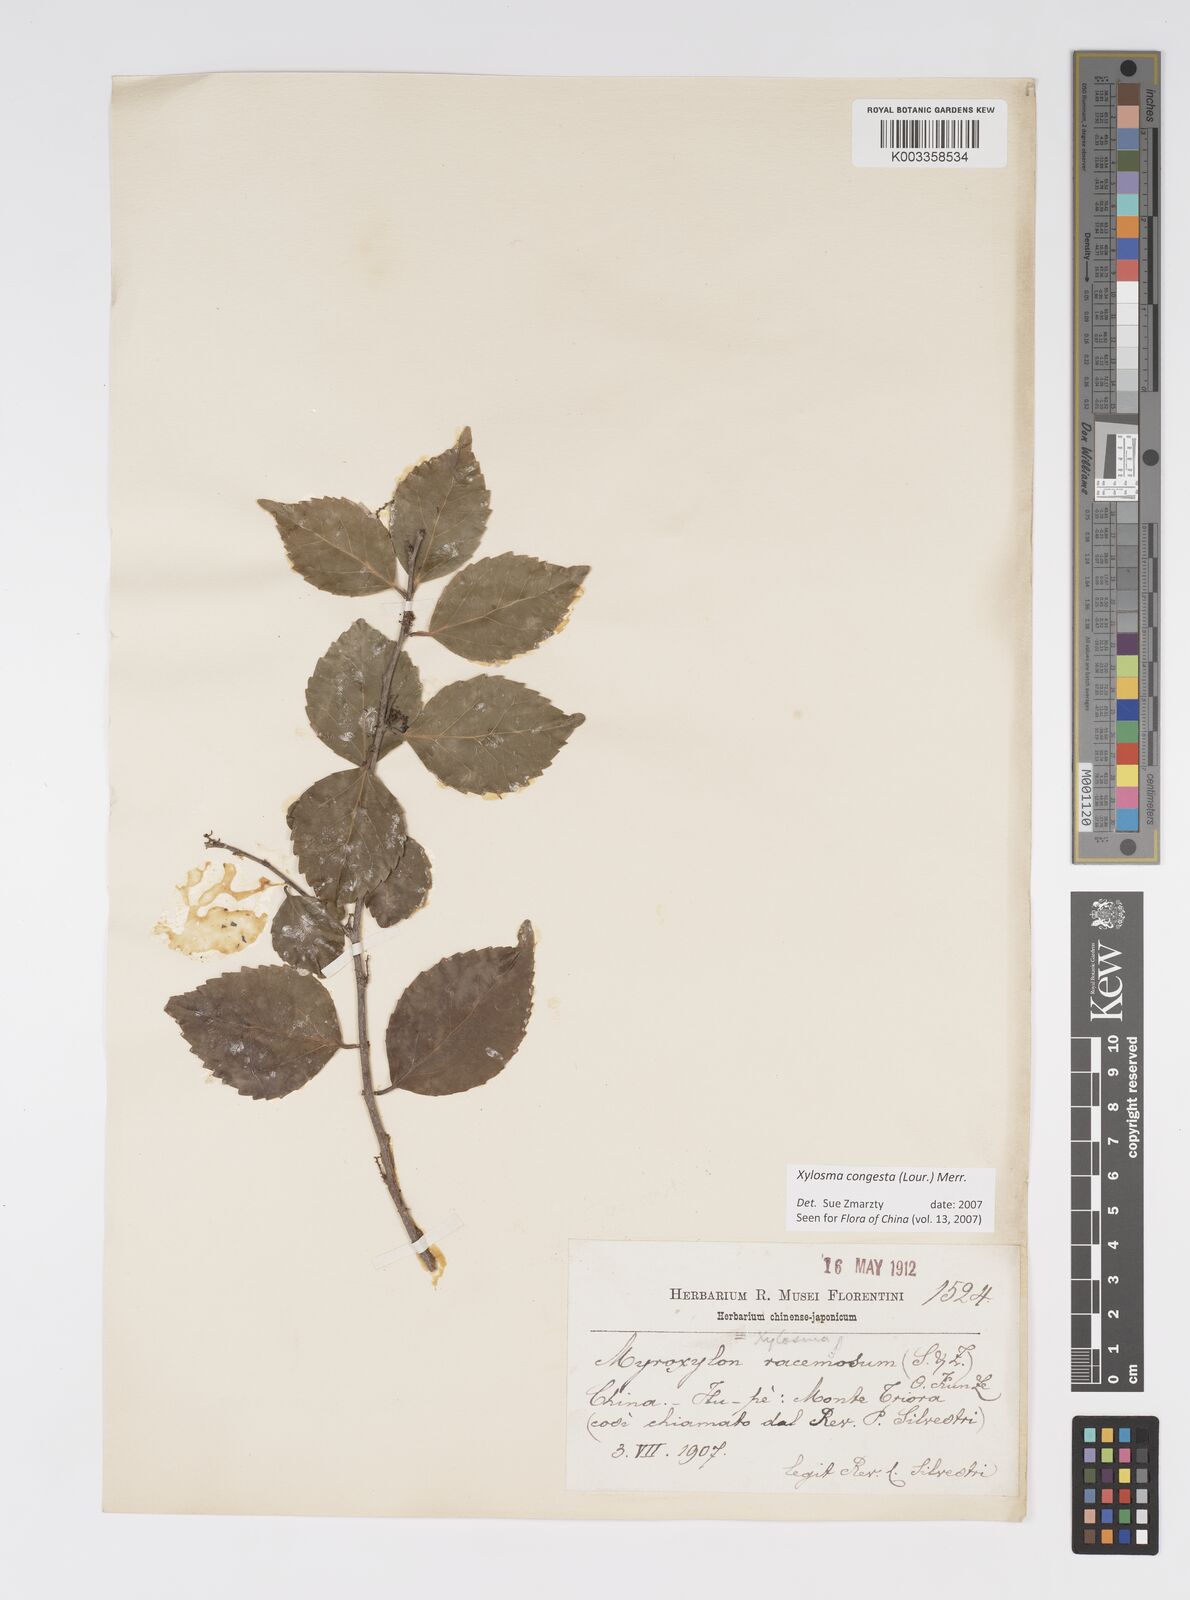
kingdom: Plantae
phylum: Tracheophyta
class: Magnoliopsida
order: Malpighiales
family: Salicaceae
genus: Xylosma
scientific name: Xylosma racemosum
